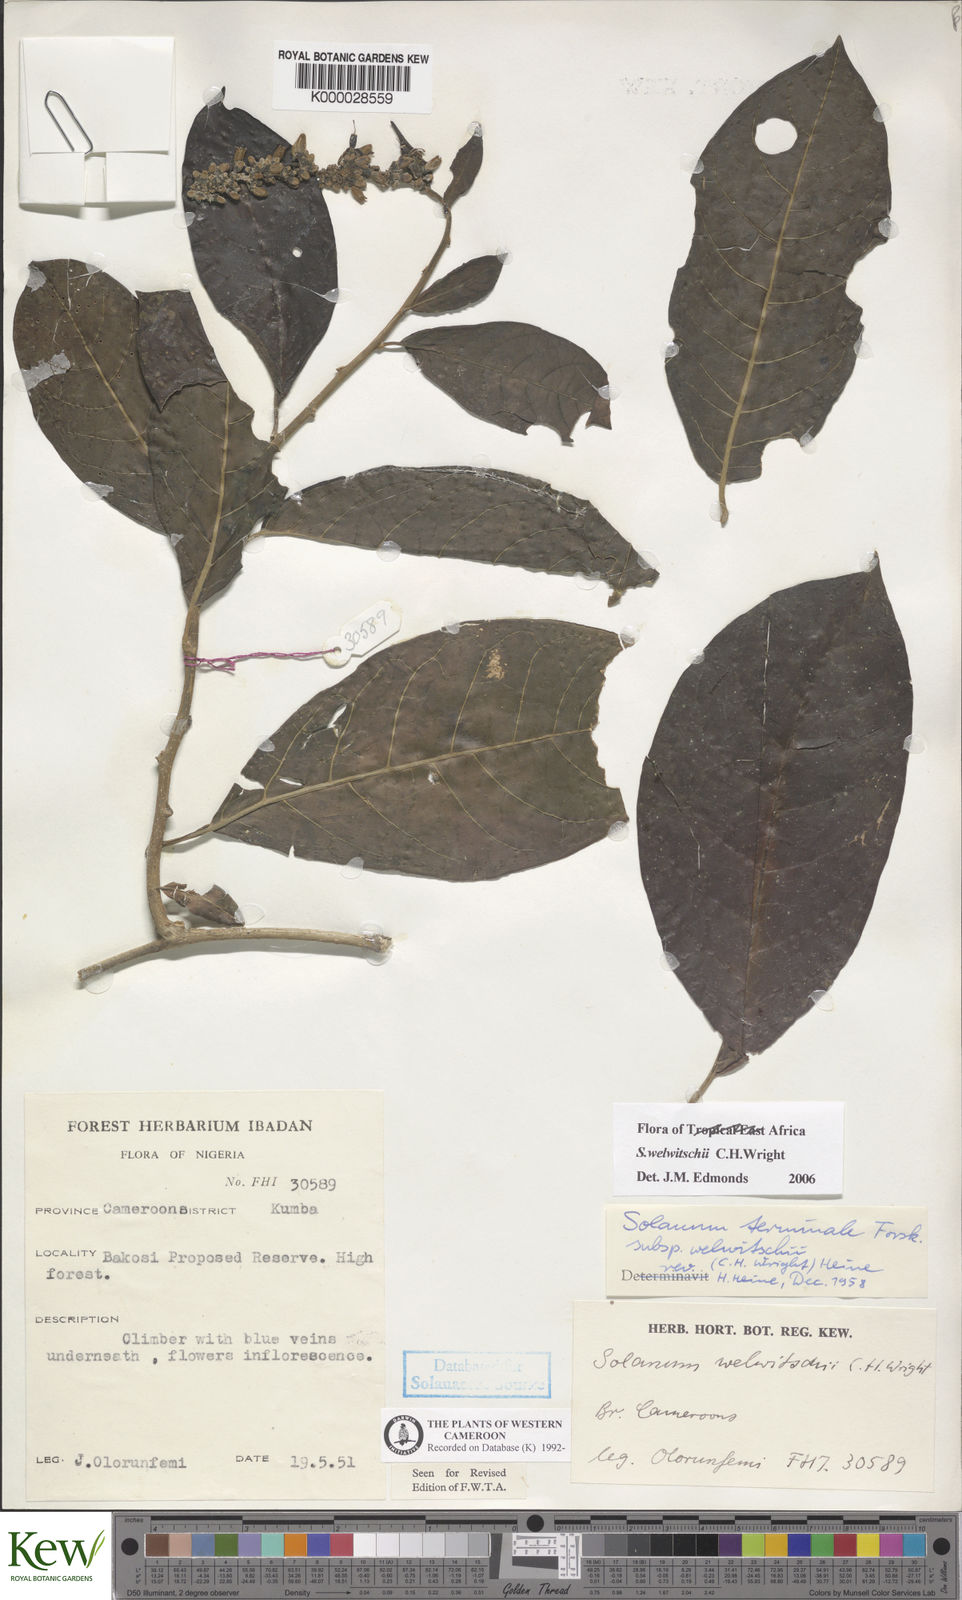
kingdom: Plantae
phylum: Tracheophyta
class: Magnoliopsida
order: Solanales
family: Solanaceae
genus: Solanum
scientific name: Solanum terminale
